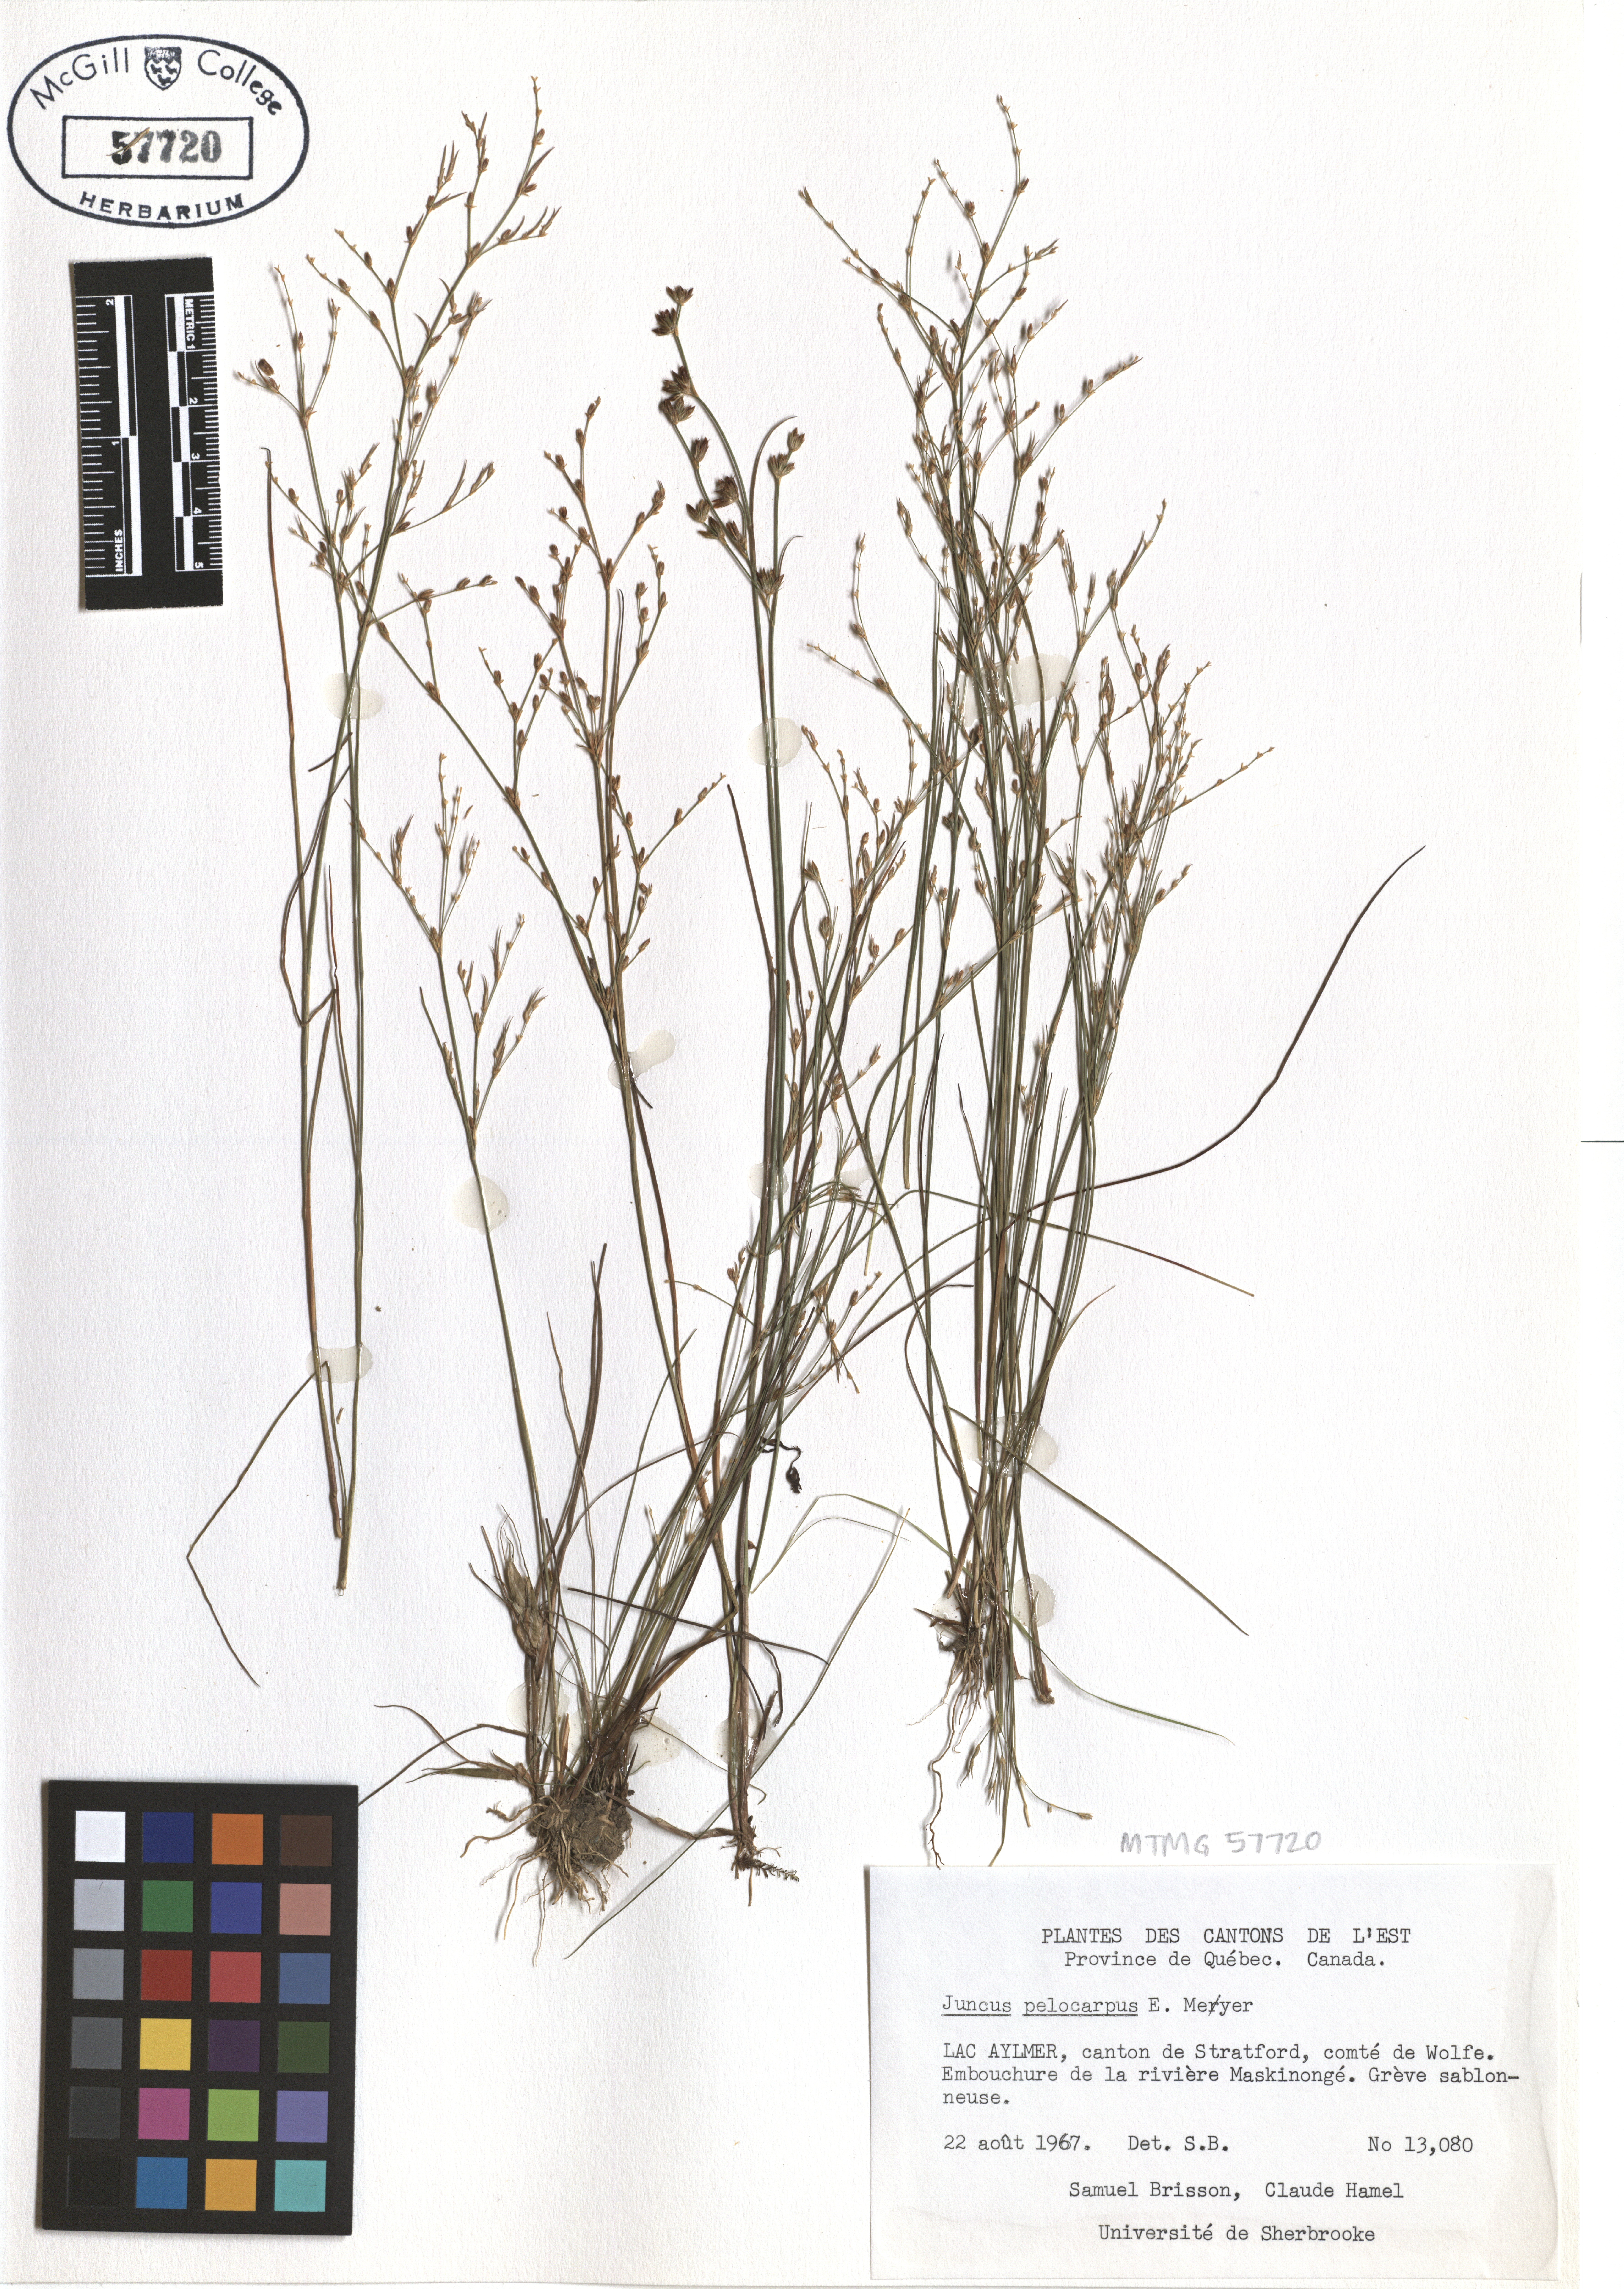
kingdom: Plantae
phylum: Tracheophyta
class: Liliopsida
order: Poales
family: Juncaceae
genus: Juncus
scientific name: Juncus pelocarpus
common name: Brown-fruited rush
